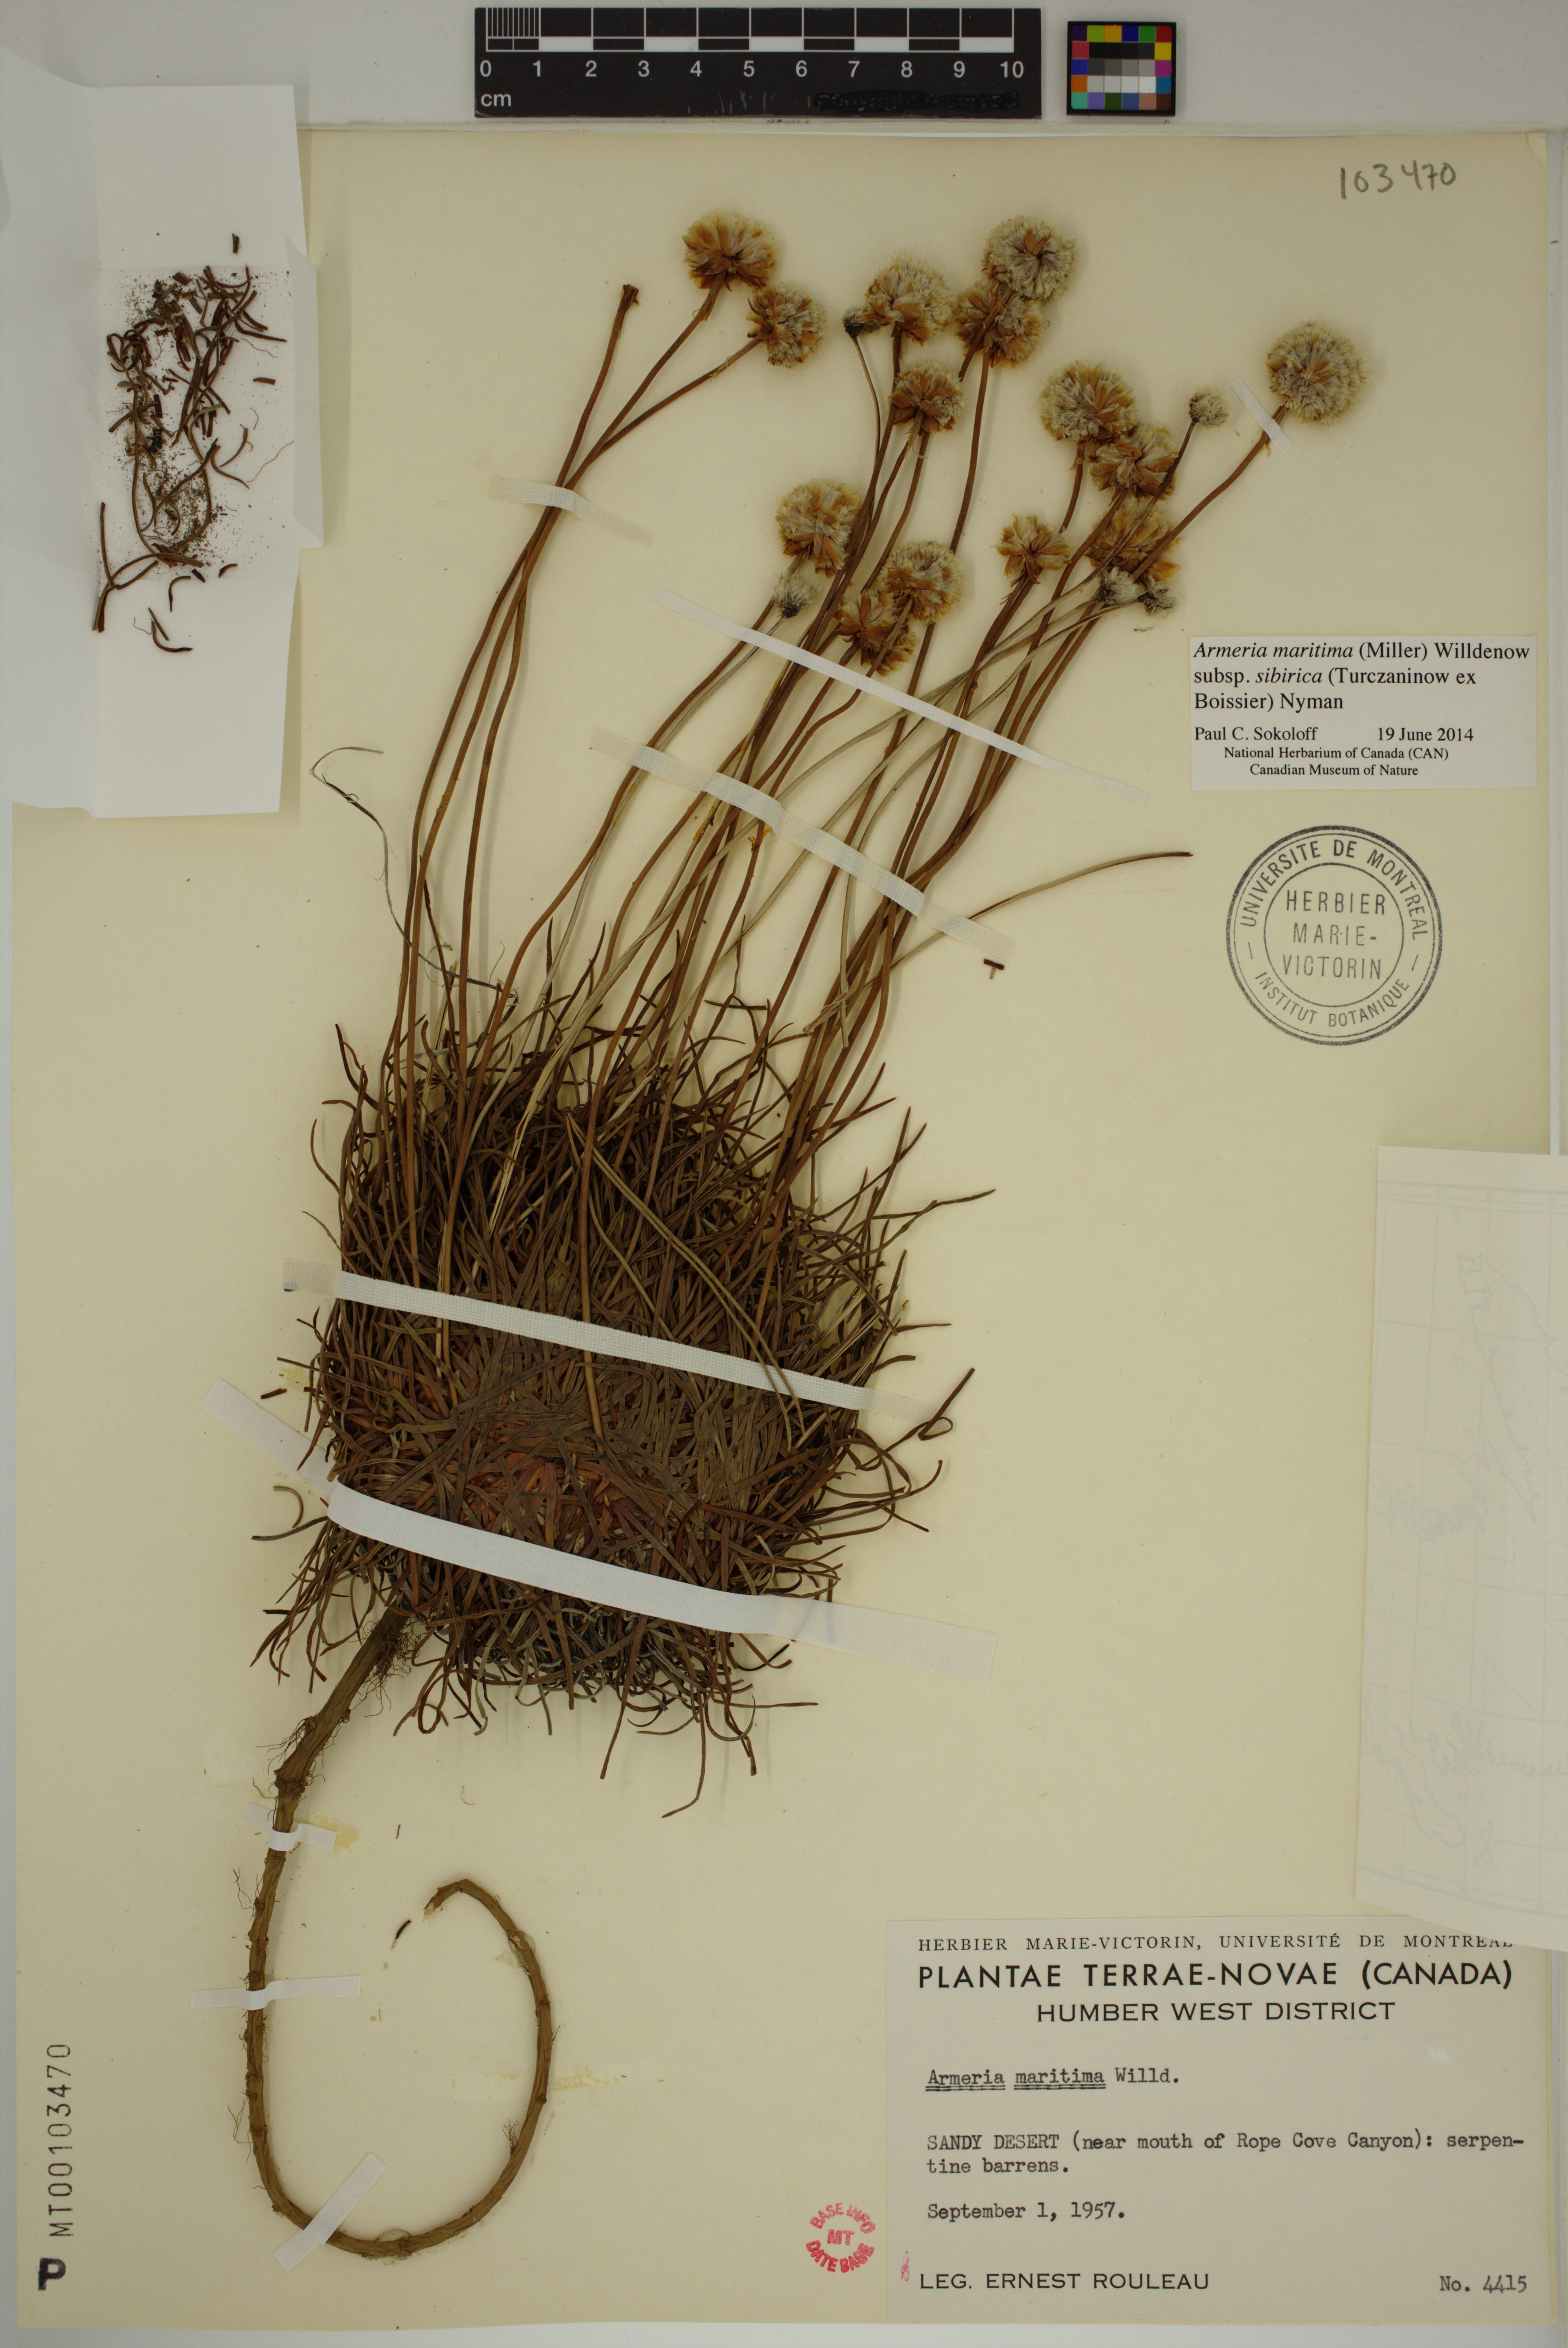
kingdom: Plantae
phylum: Tracheophyta
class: Magnoliopsida
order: Caryophyllales
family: Plumbaginaceae
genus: Armeria
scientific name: Armeria maritima
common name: Thrift
